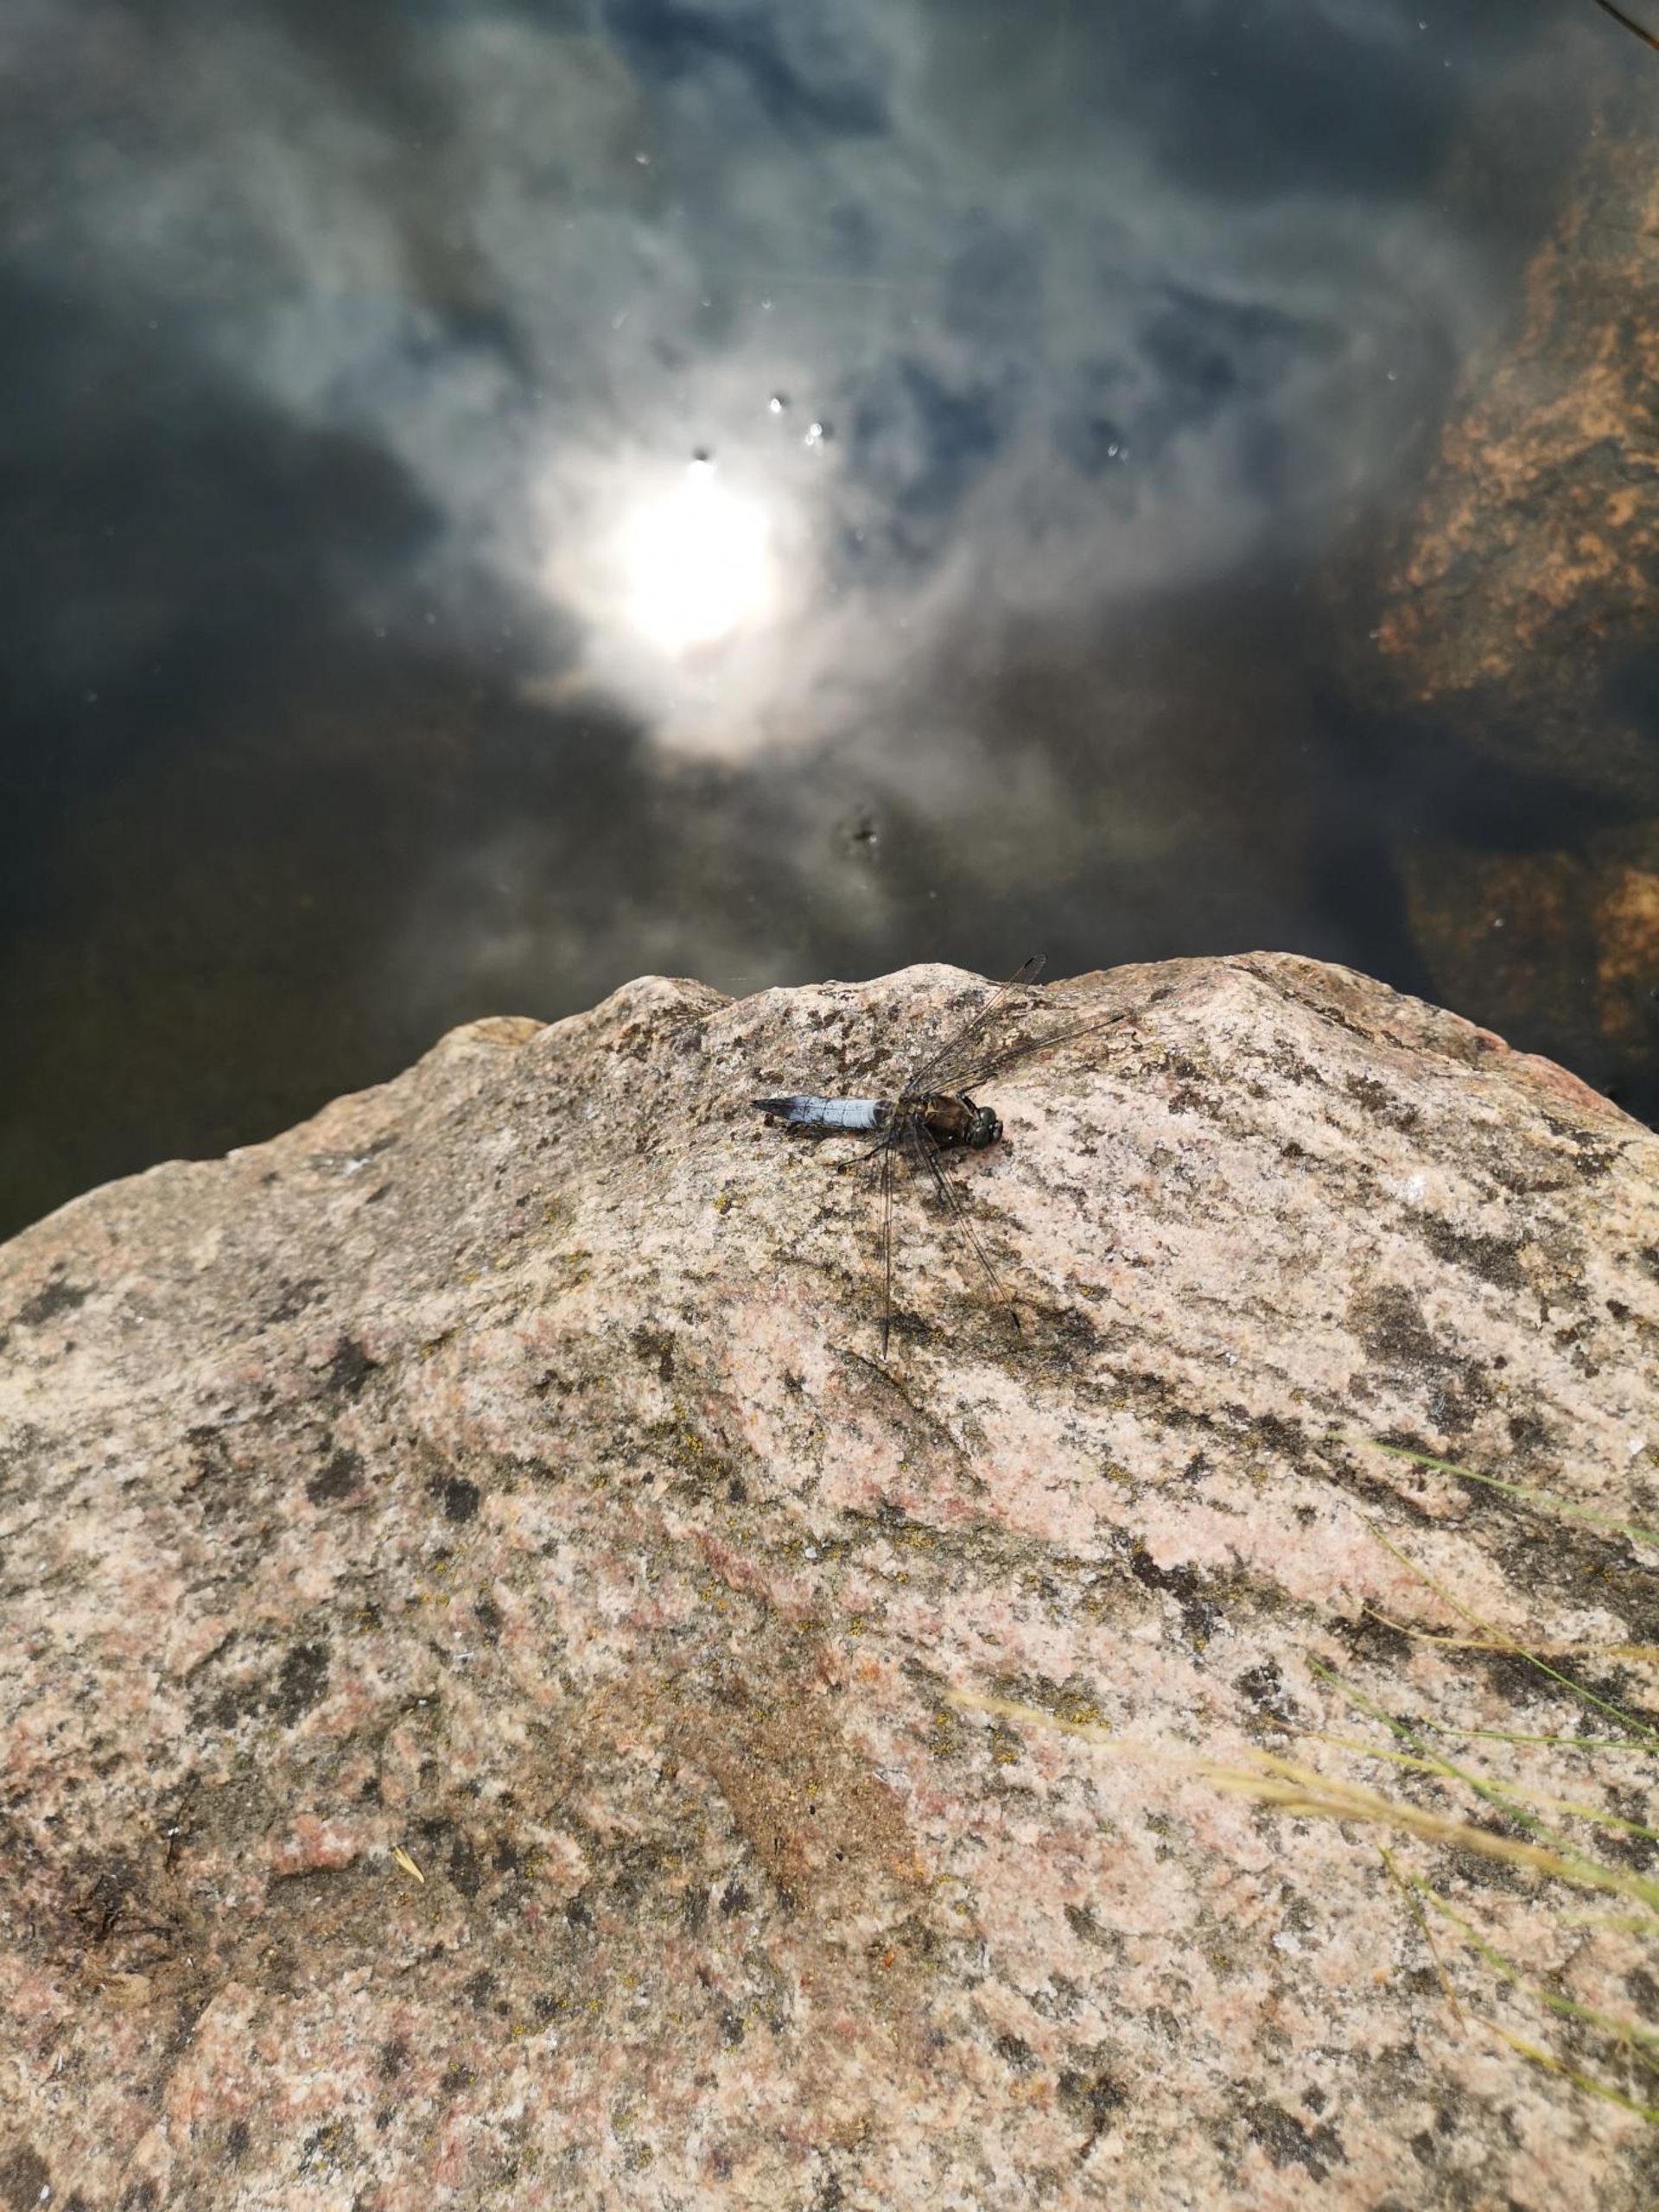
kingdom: Animalia
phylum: Arthropoda
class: Insecta
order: Odonata
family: Libellulidae
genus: Orthetrum
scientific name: Orthetrum cancellatum
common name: Stor blåpil
